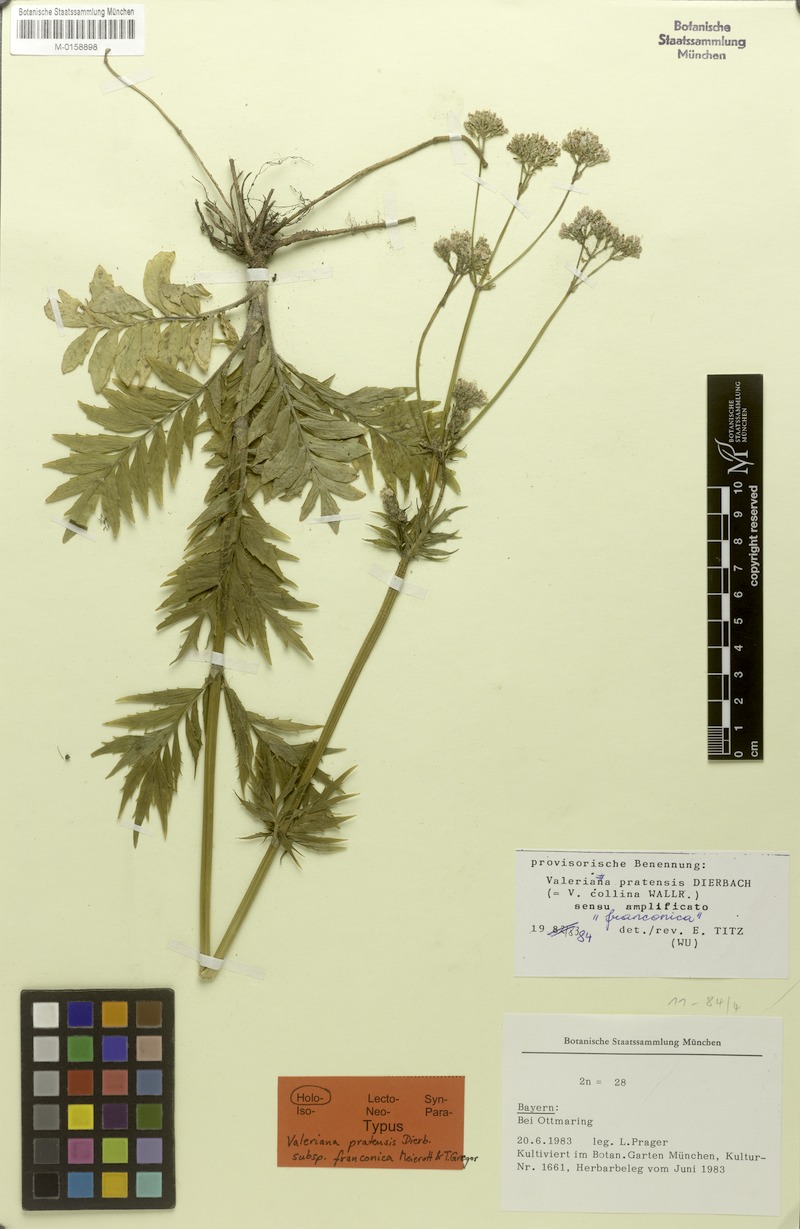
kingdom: Plantae
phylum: Tracheophyta
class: Magnoliopsida
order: Dipsacales
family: Caprifoliaceae
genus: Valeriana
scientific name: Valeriana pratensis
